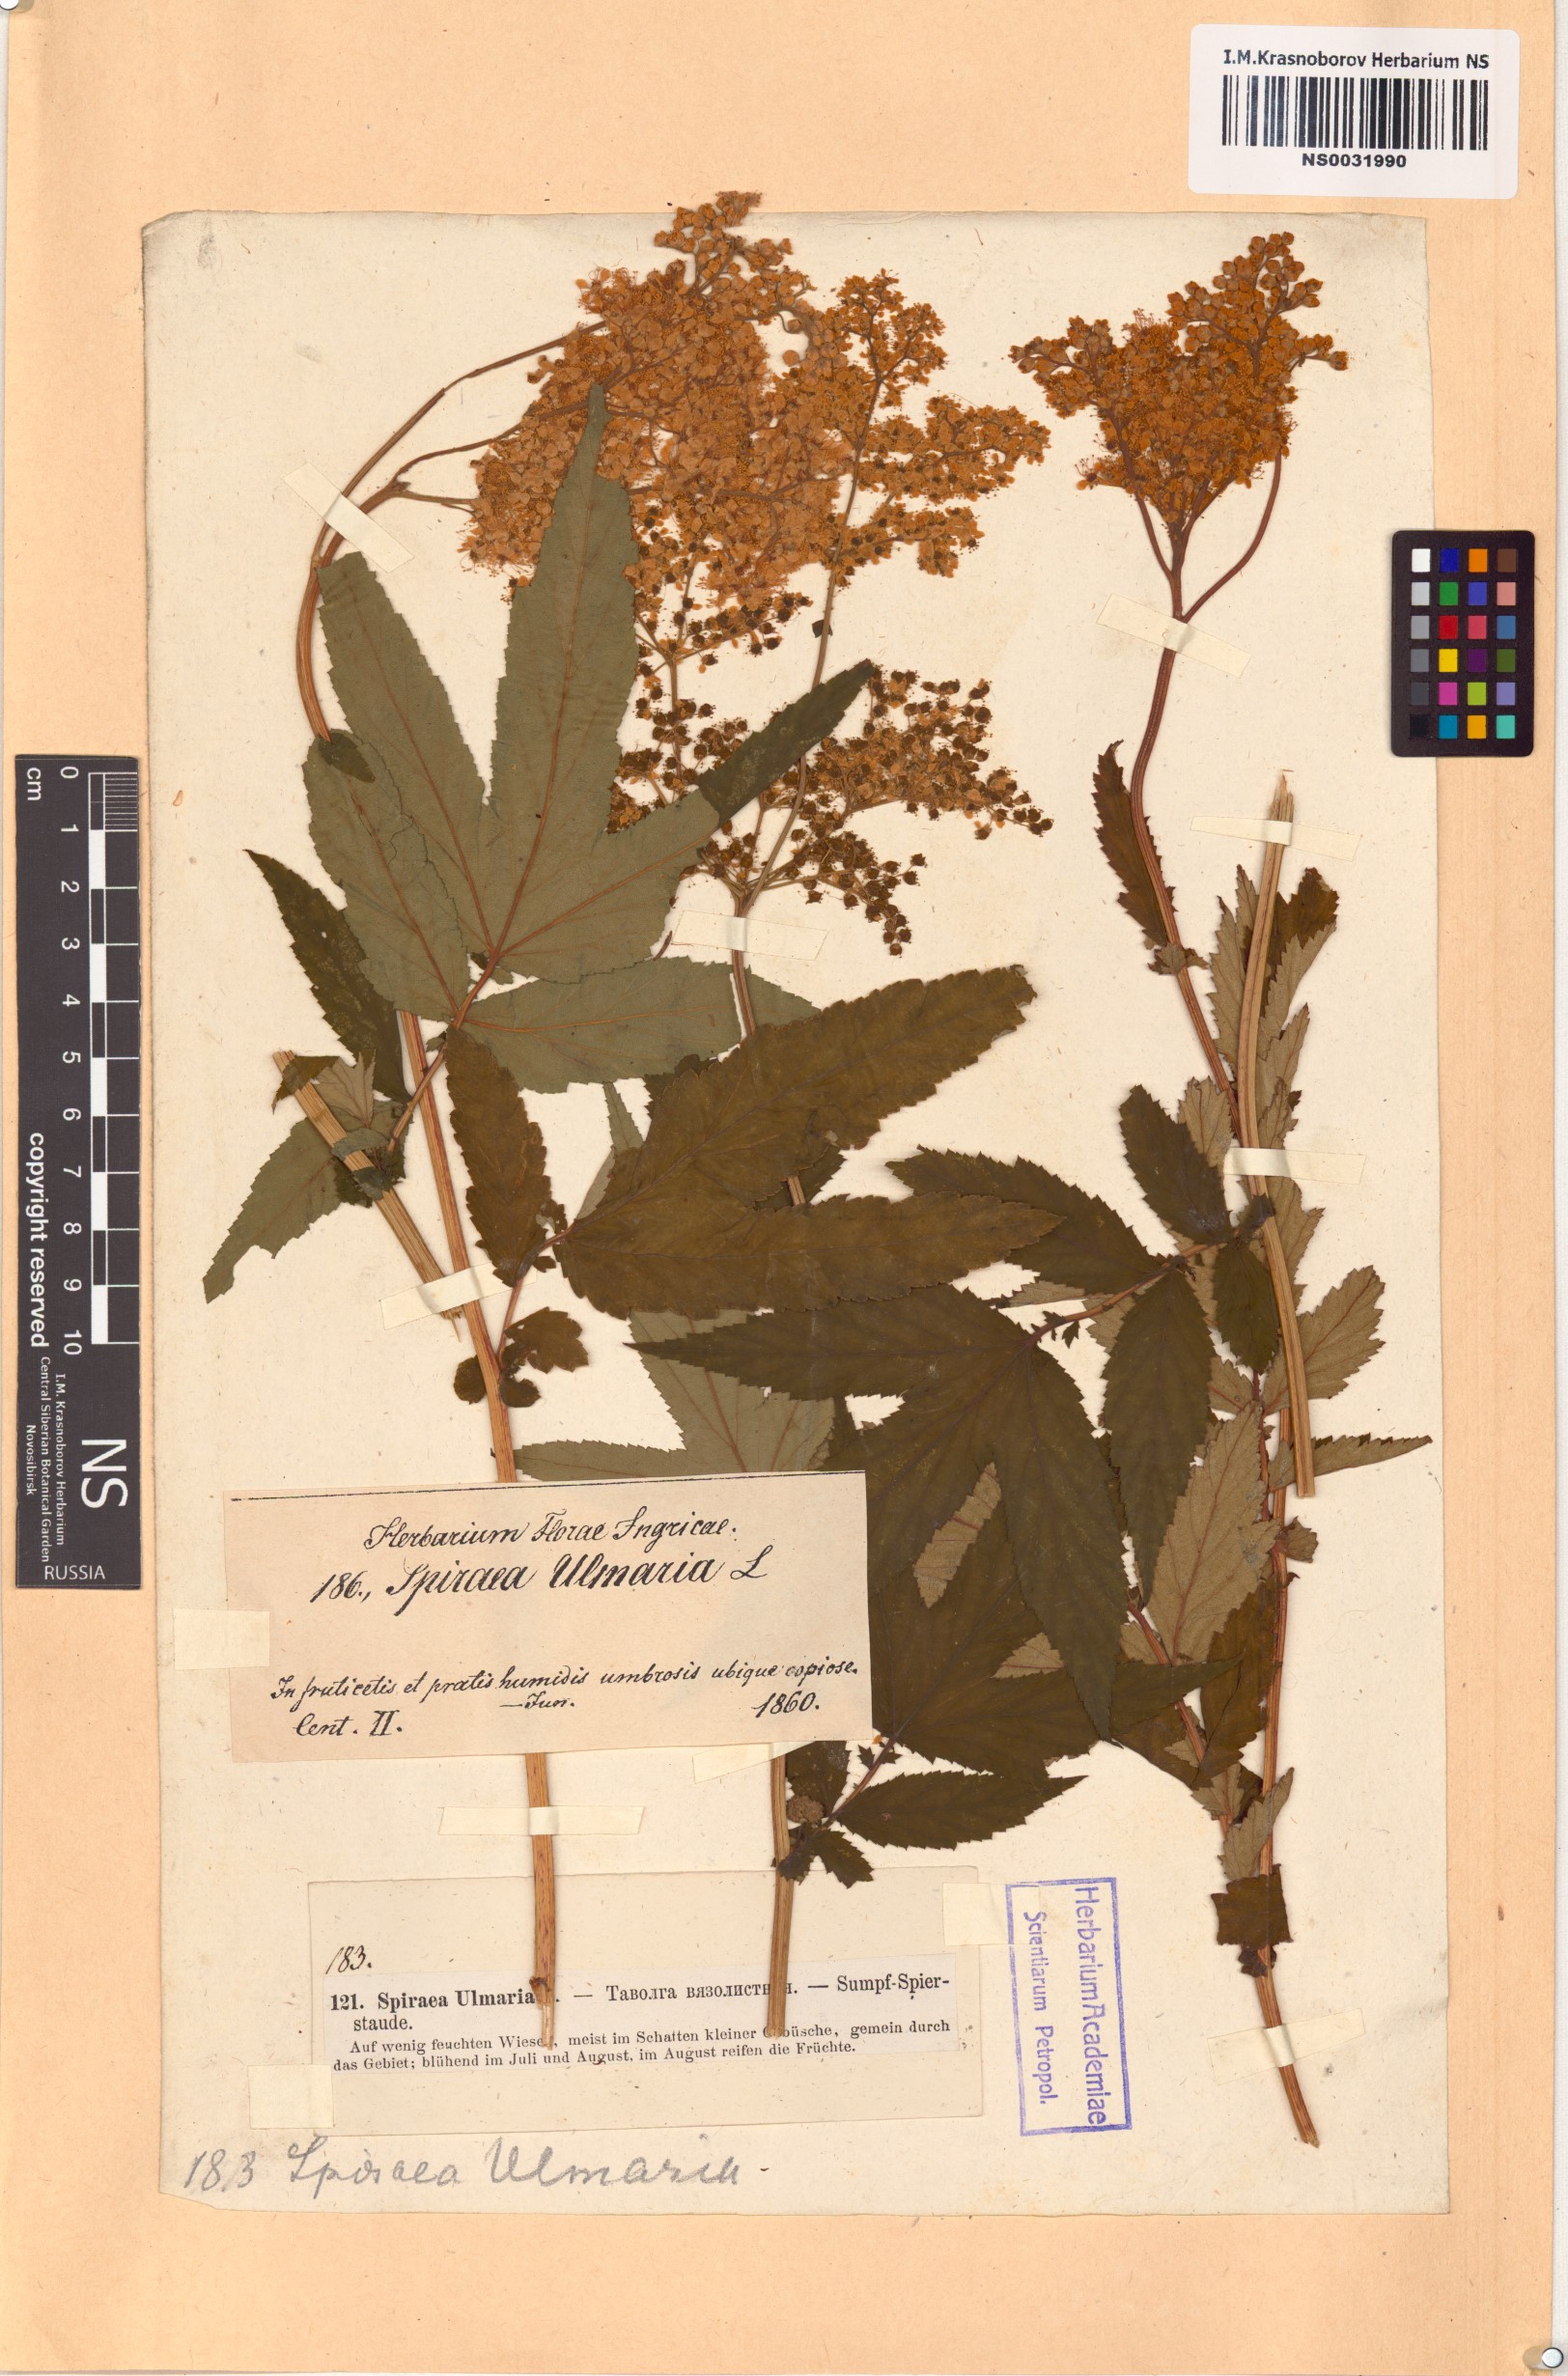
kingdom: Plantae
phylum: Tracheophyta
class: Magnoliopsida
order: Rosales
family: Rosaceae
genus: Filipendula
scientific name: Filipendula ulmaria
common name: Meadowsweet
